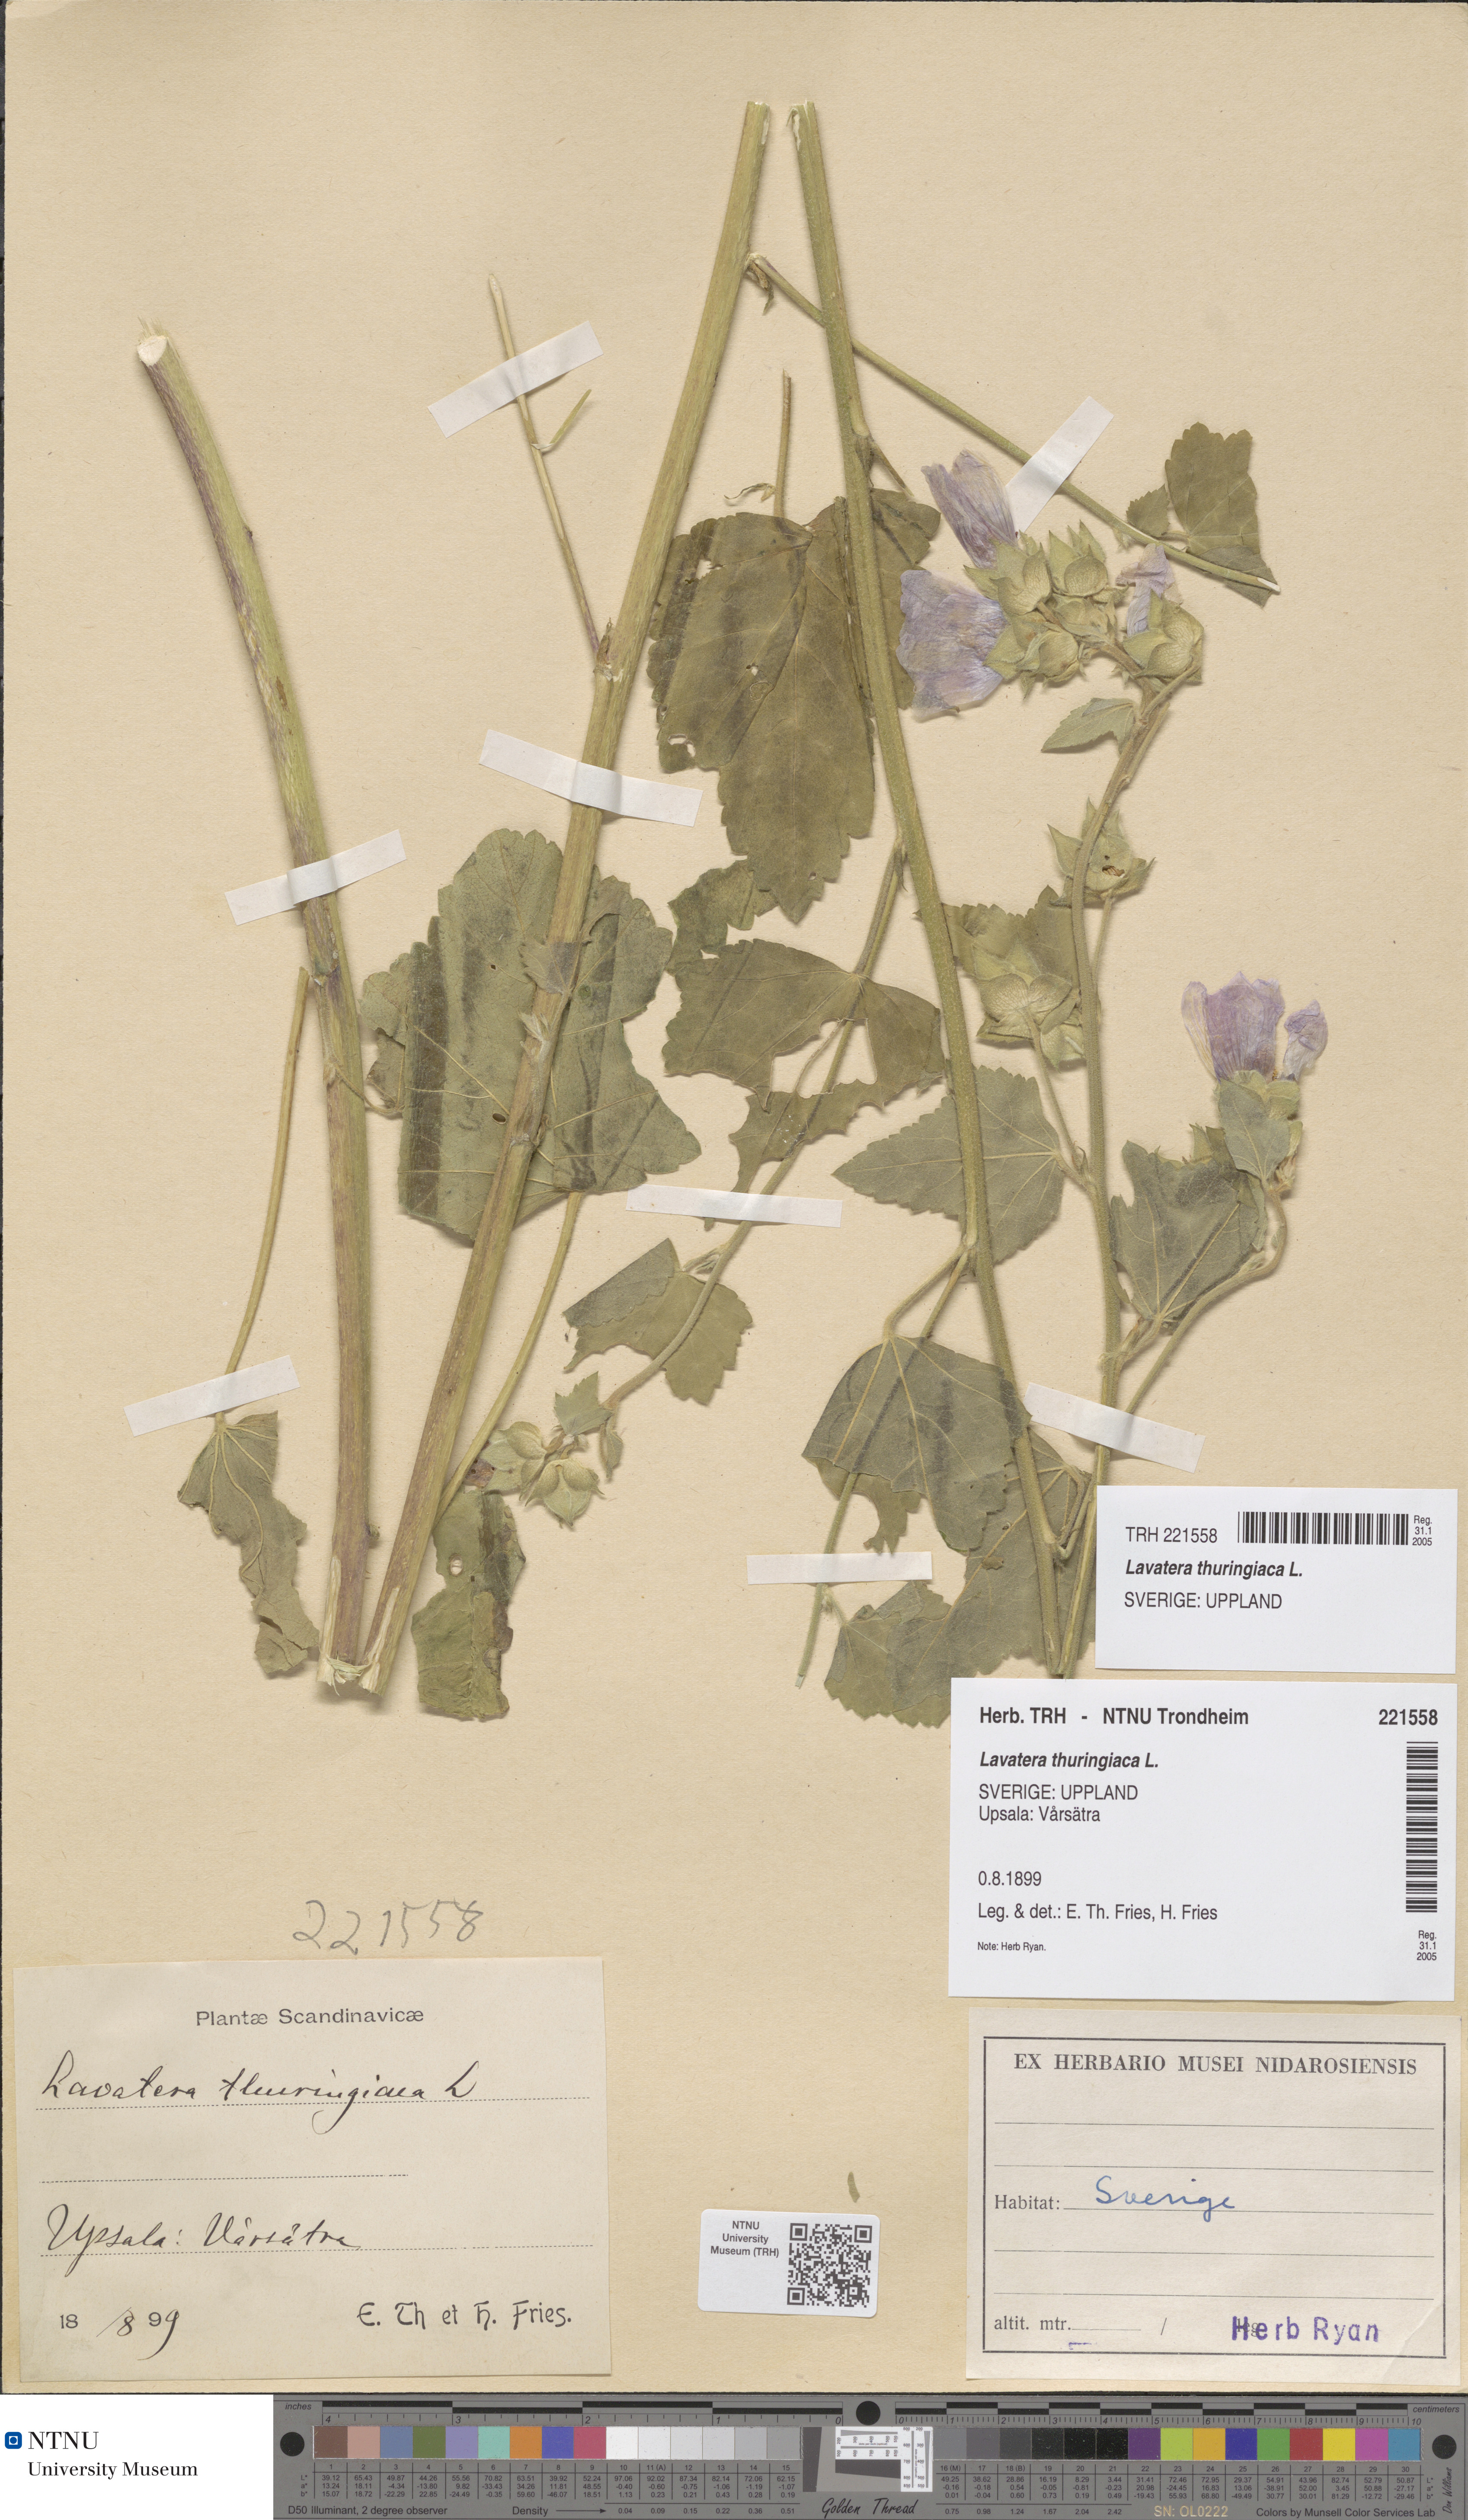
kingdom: Plantae
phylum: Tracheophyta
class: Magnoliopsida
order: Malvales
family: Malvaceae
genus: Malva
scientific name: Malva thuringiaca
